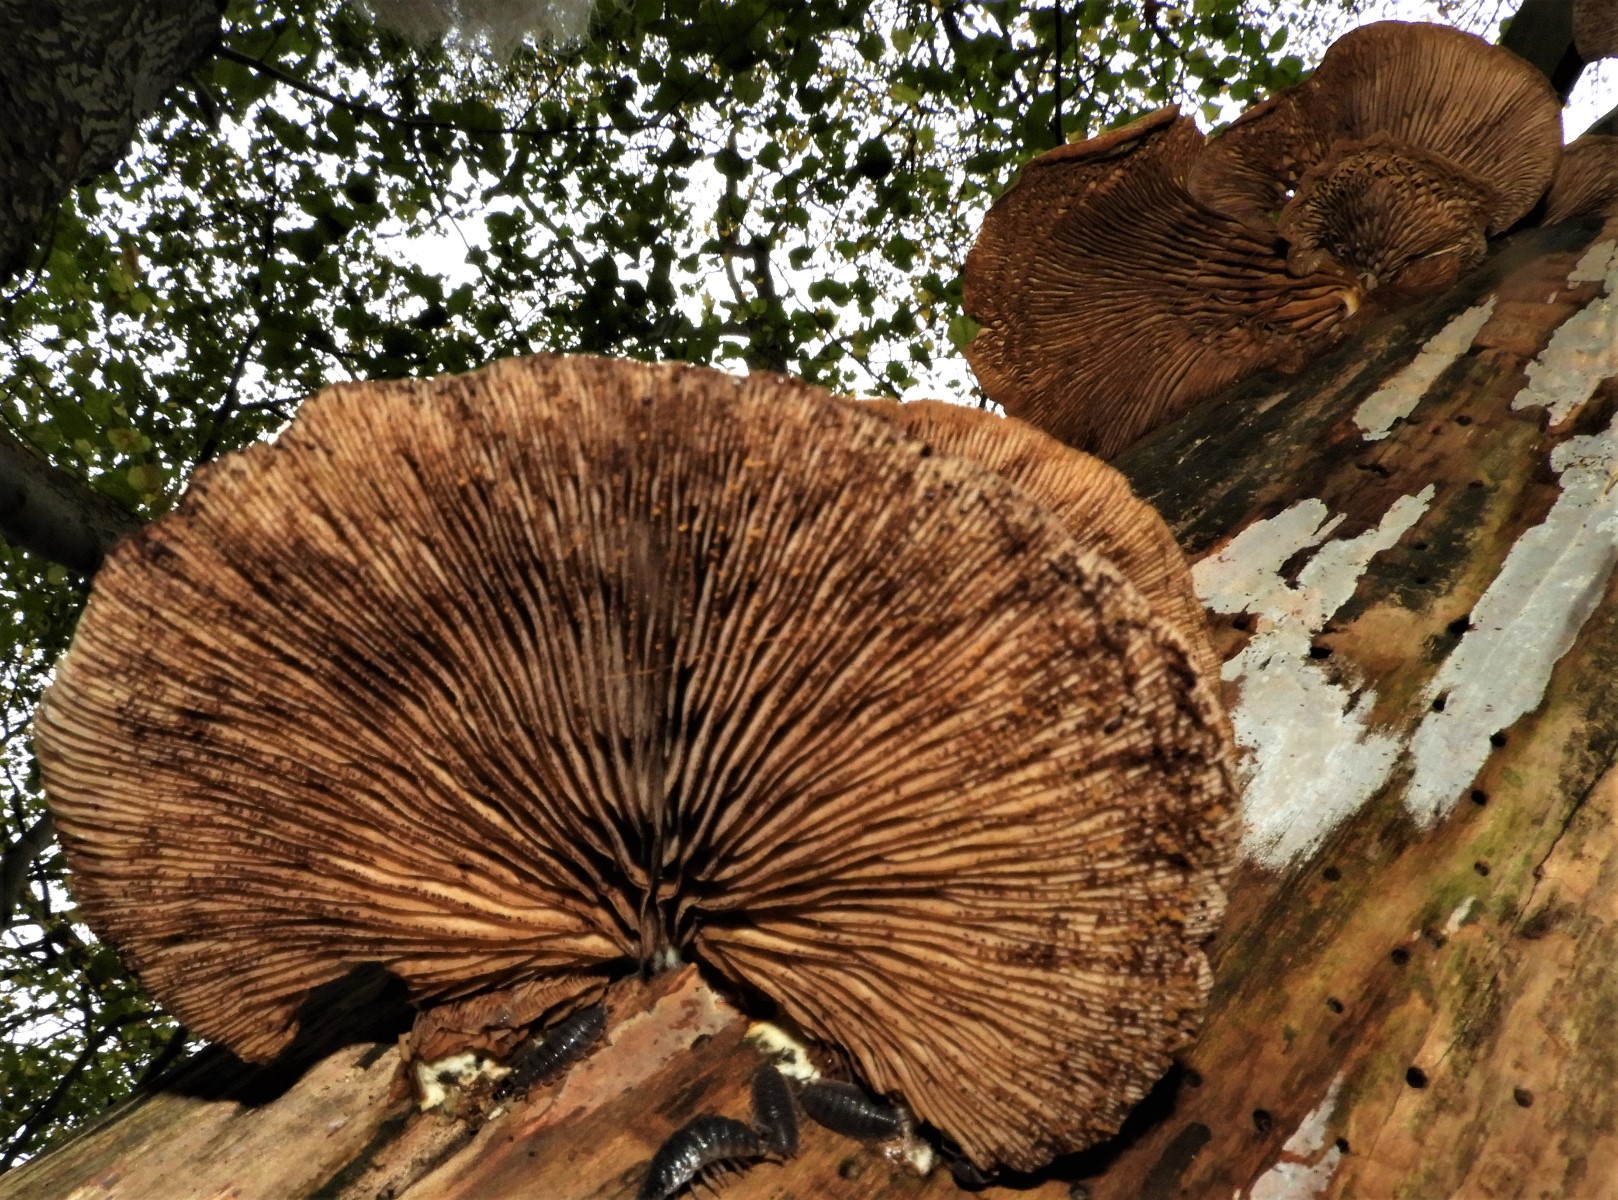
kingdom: Fungi
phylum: Basidiomycota
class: Agaricomycetes
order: Agaricales
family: Crepidotaceae
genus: Crepidotus
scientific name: Crepidotus mollis
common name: blød muslingesvamp
